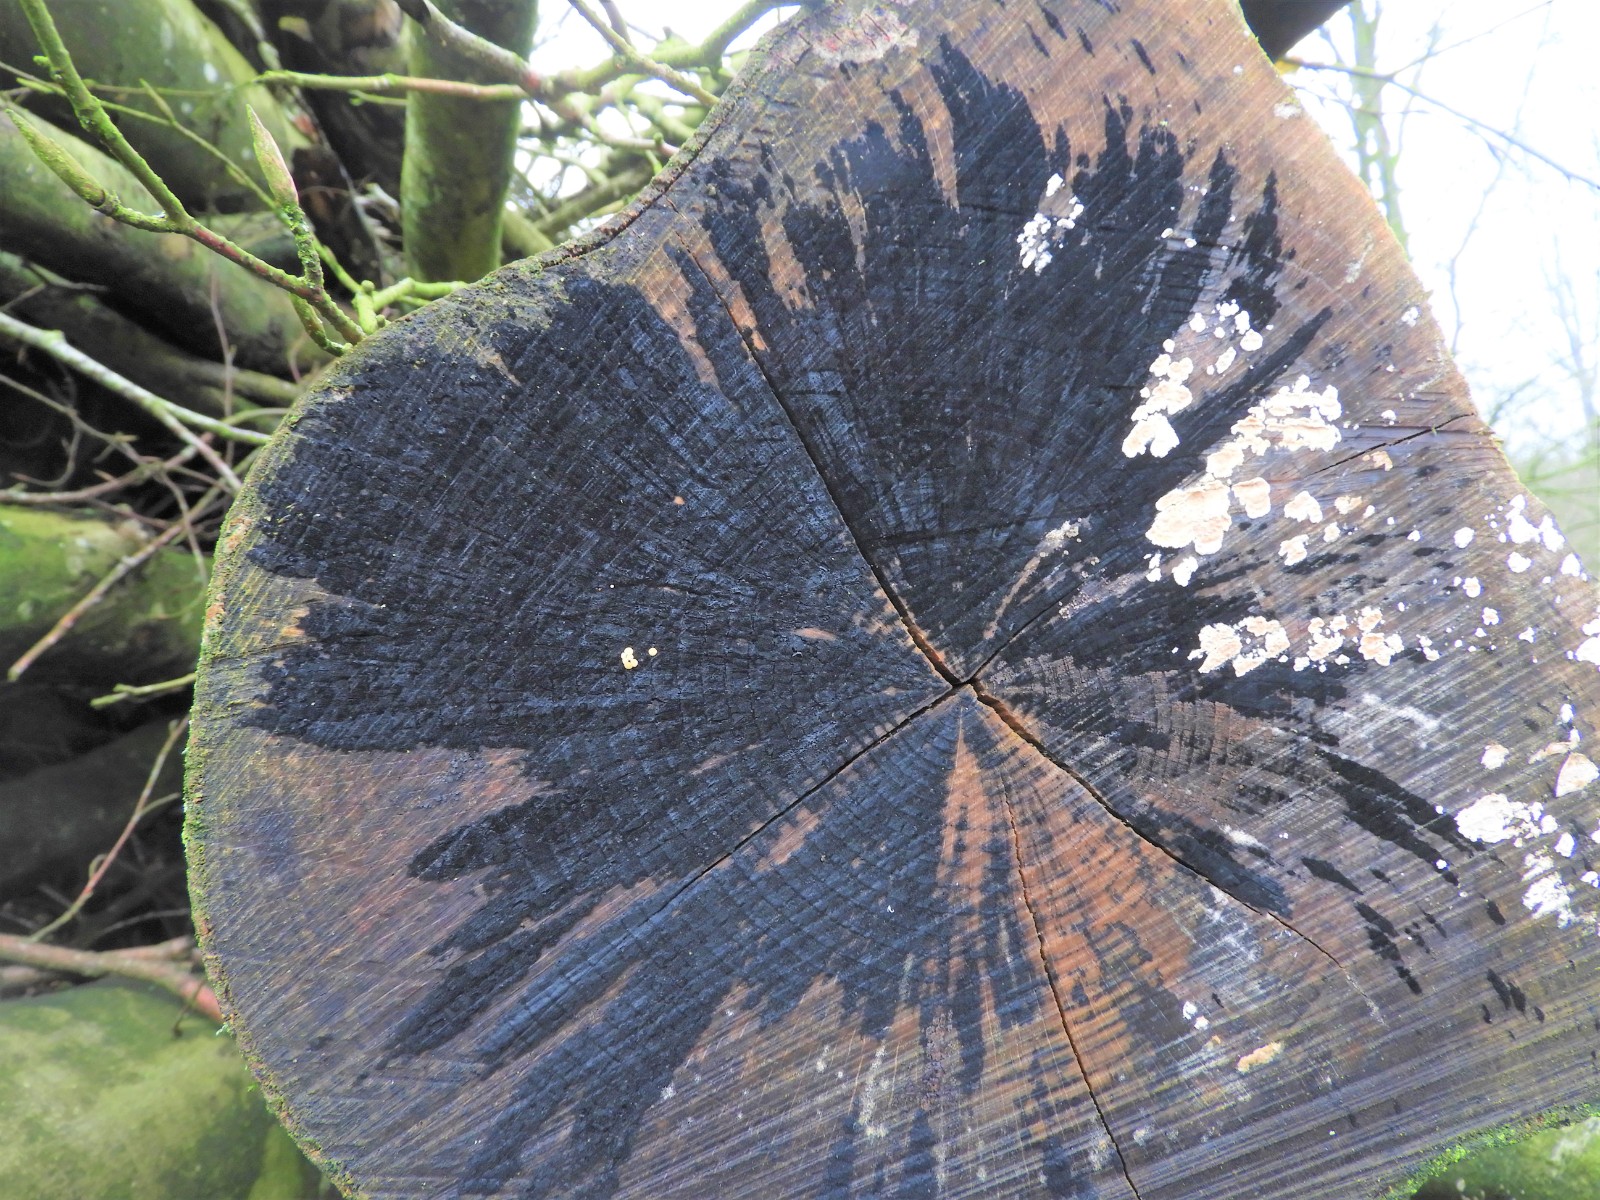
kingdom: Fungi
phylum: Ascomycota
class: Leotiomycetes
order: Helotiales
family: Helotiaceae
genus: Bispora
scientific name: Bispora pallescens
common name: måtte-snitskive
